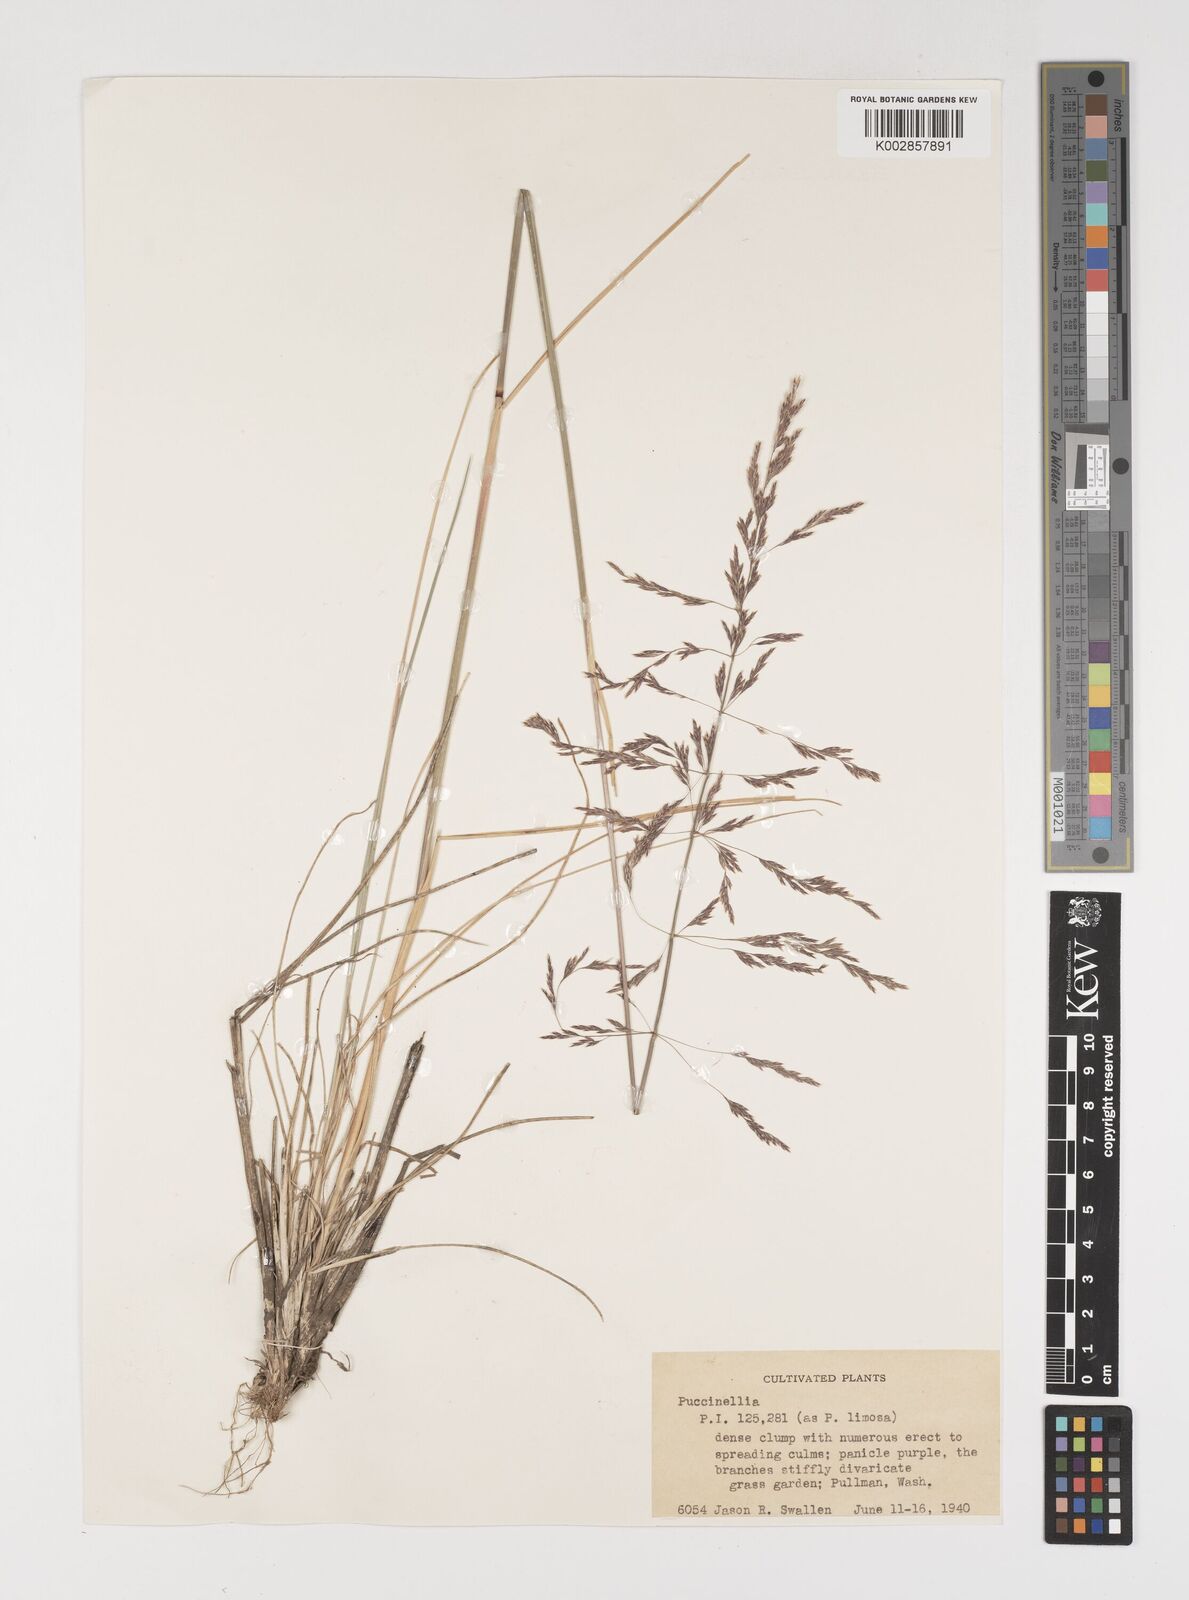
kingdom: Plantae
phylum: Tracheophyta
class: Liliopsida
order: Poales
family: Poaceae
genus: Puccinellia
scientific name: Puccinellia
